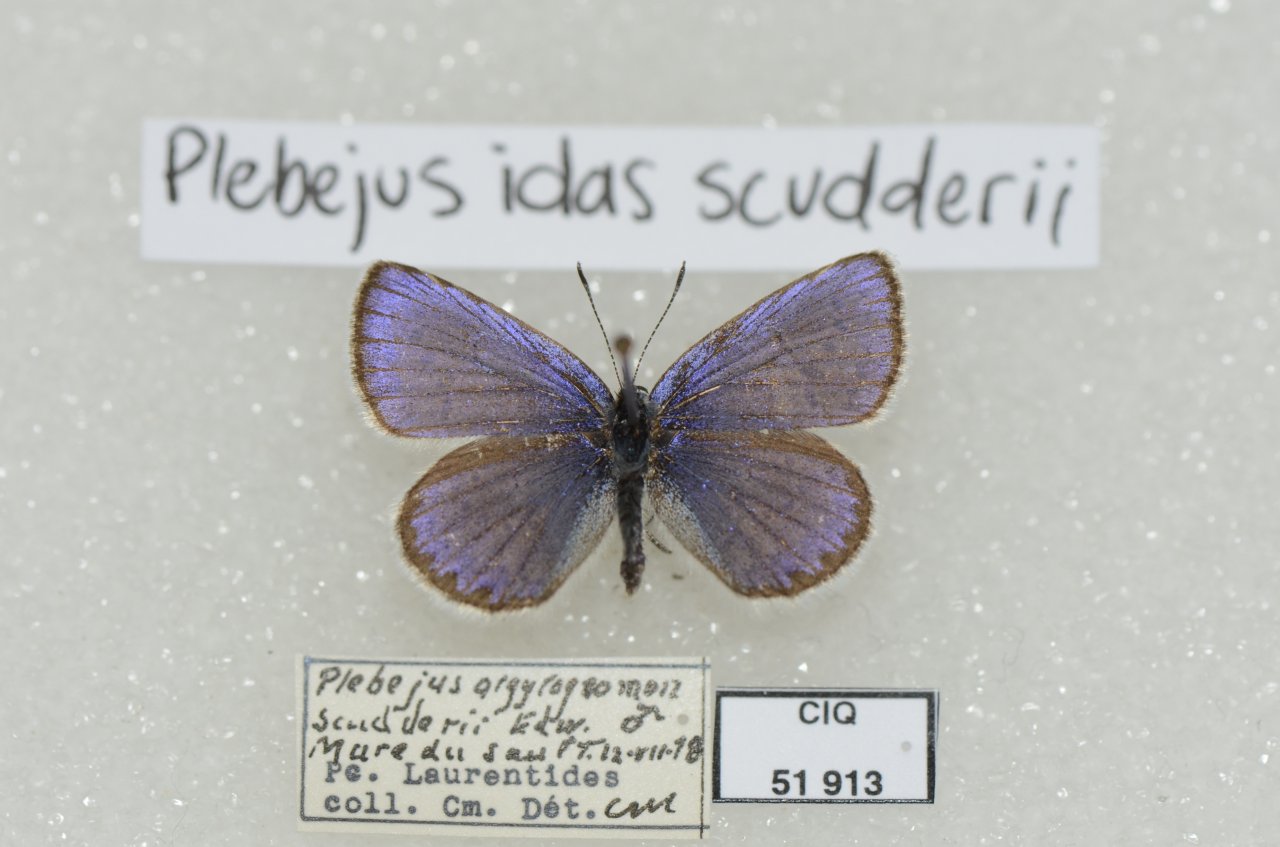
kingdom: Animalia
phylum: Arthropoda
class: Insecta
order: Lepidoptera
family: Lycaenidae
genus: Lycaeides
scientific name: Lycaeides idas
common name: Northern Blue
